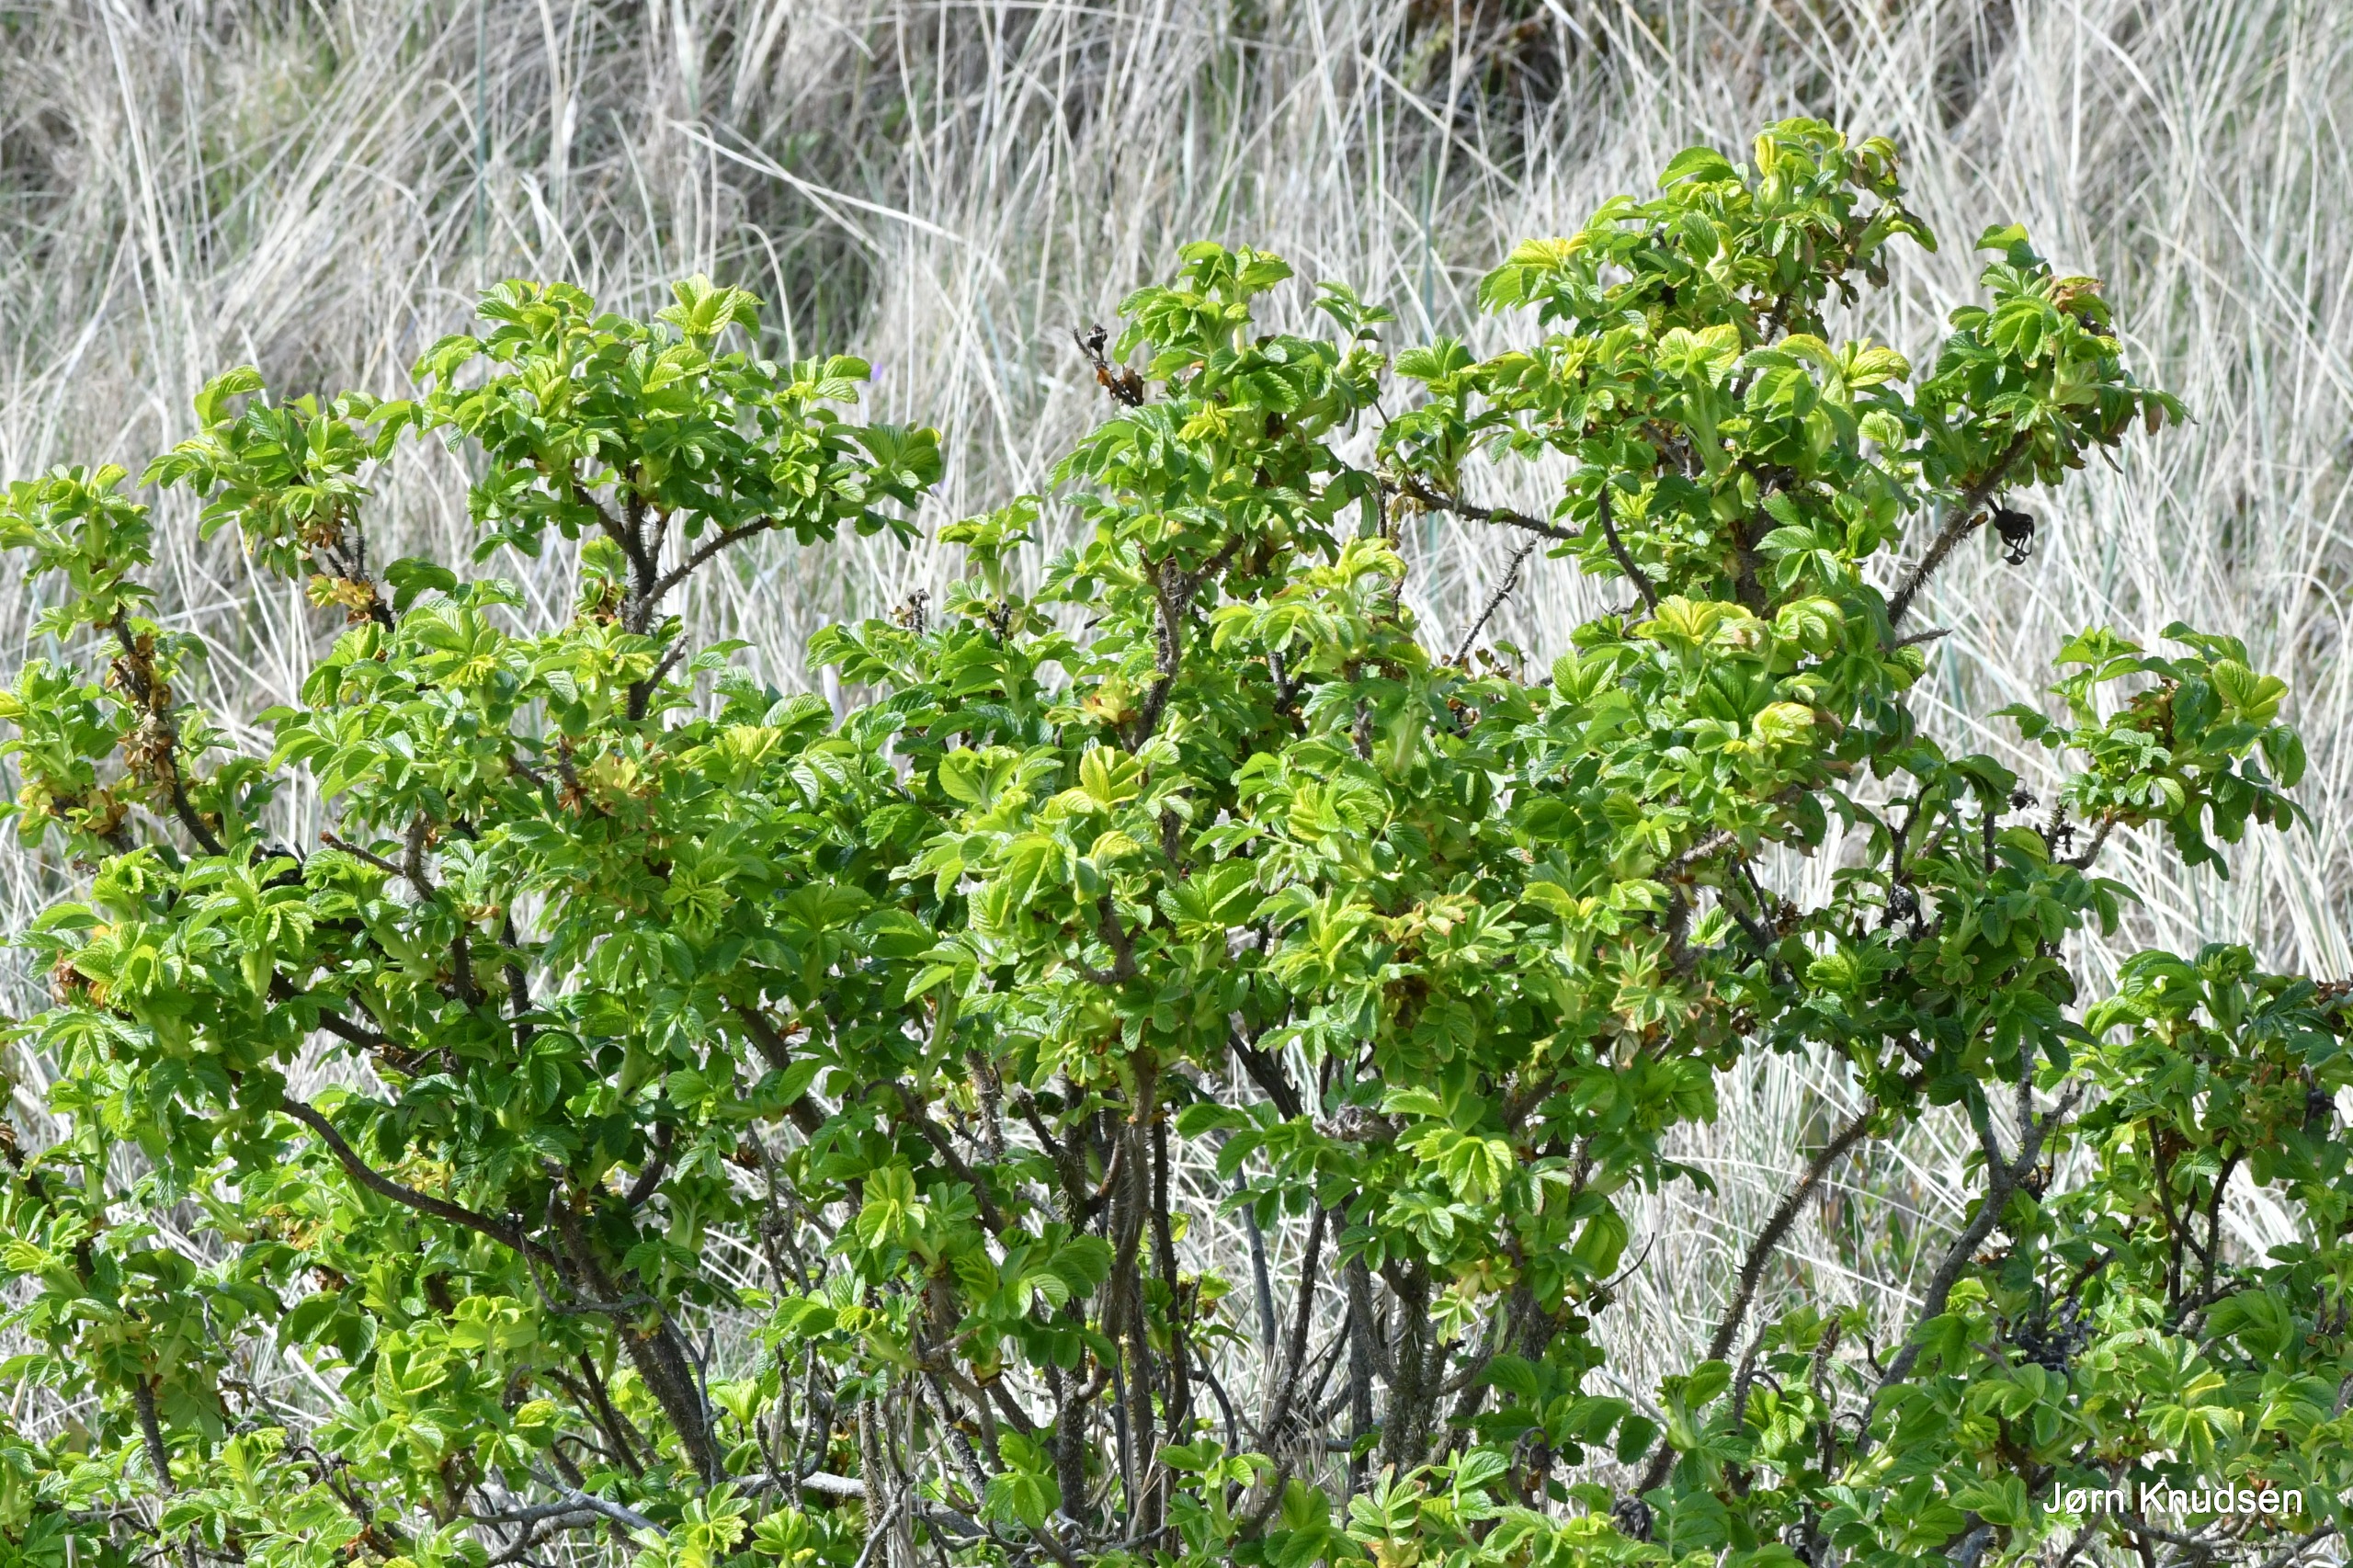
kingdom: Plantae
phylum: Tracheophyta
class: Magnoliopsida
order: Rosales
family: Rosaceae
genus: Rosa
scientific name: Rosa rugosa
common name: Rynket rose
